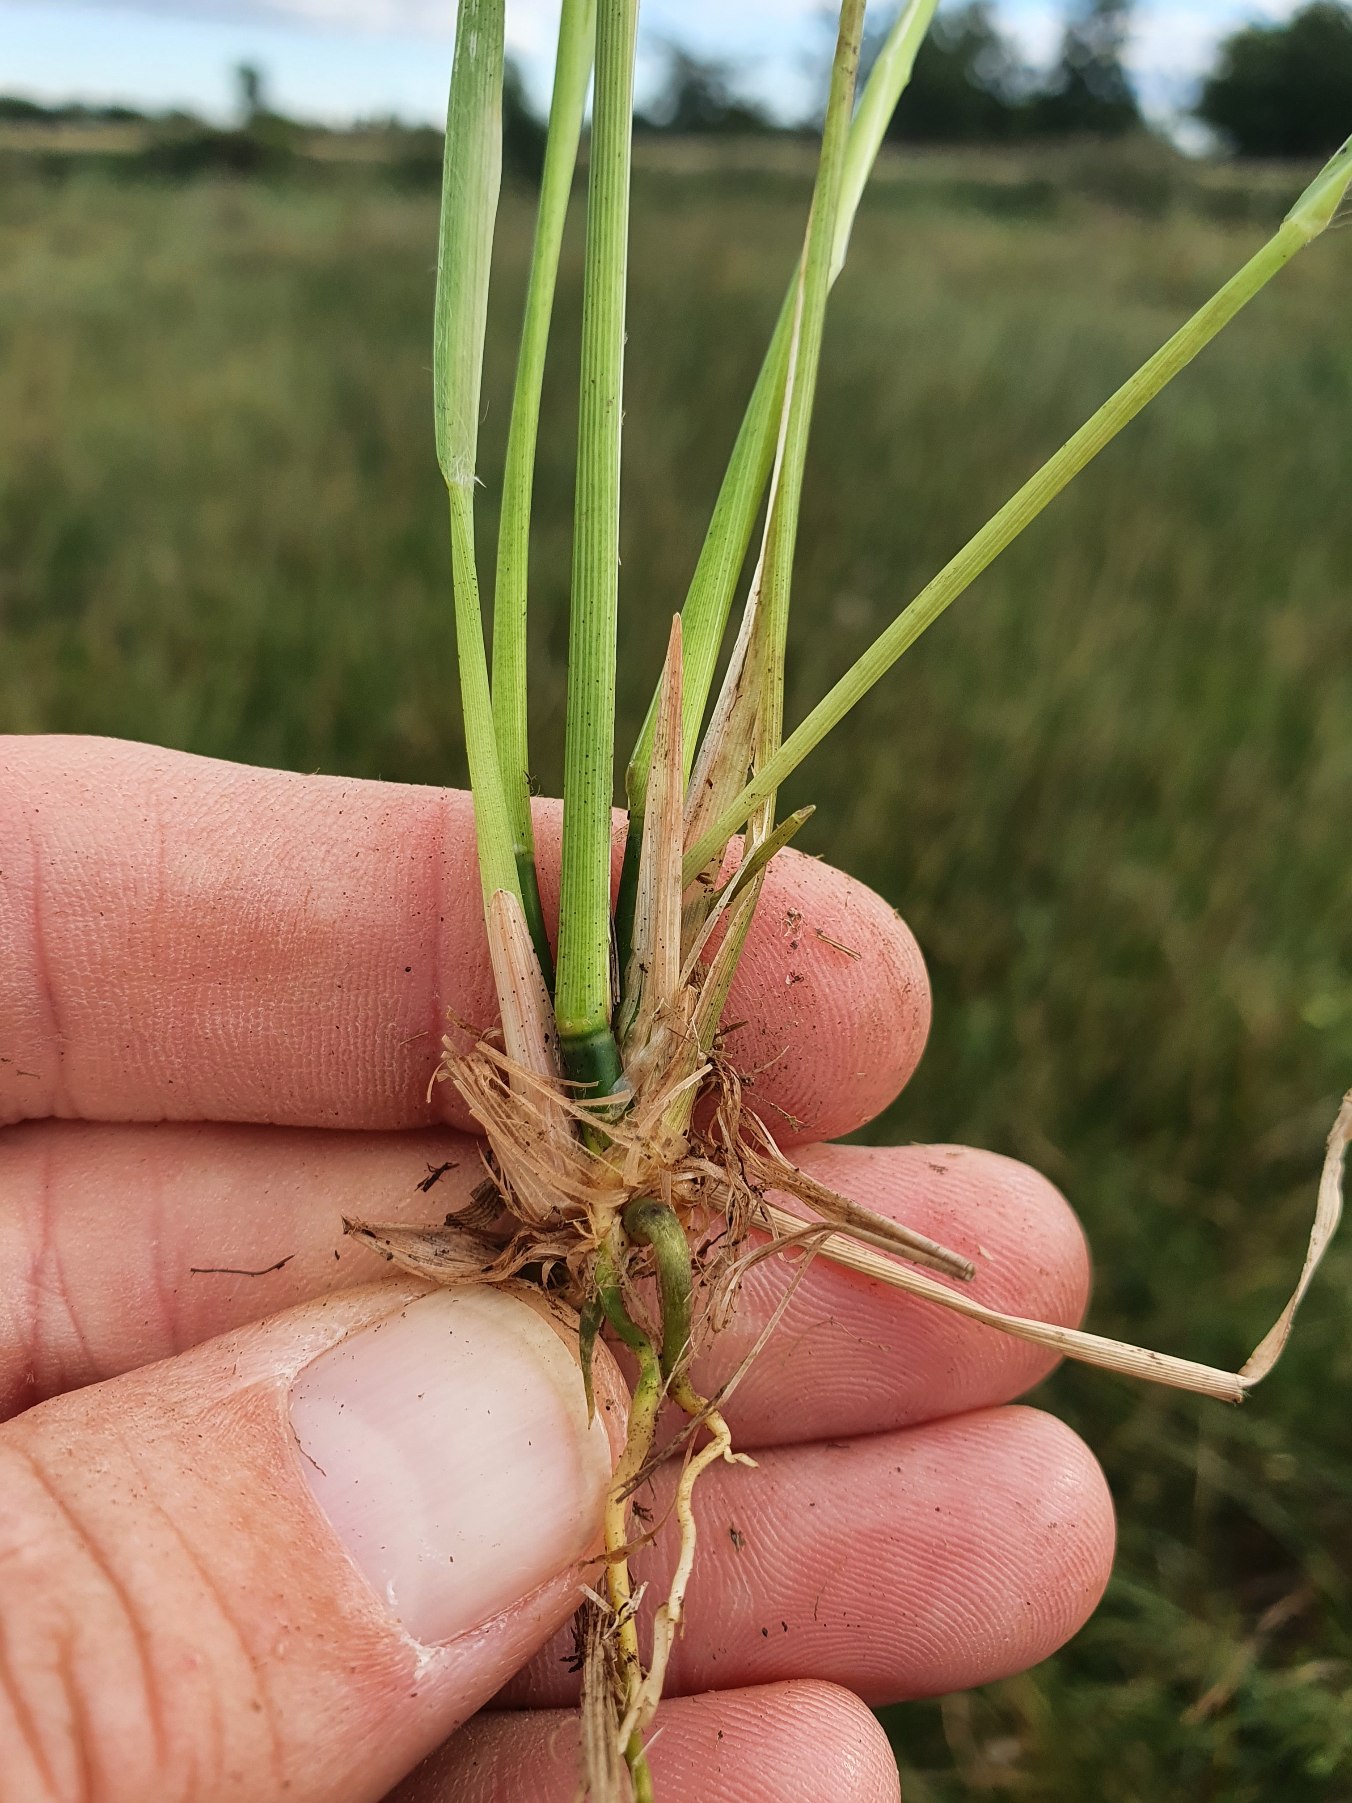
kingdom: Plantae
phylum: Tracheophyta
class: Liliopsida
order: Poales
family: Poaceae
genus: Molinia
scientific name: Molinia caerulea
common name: Blåtop
